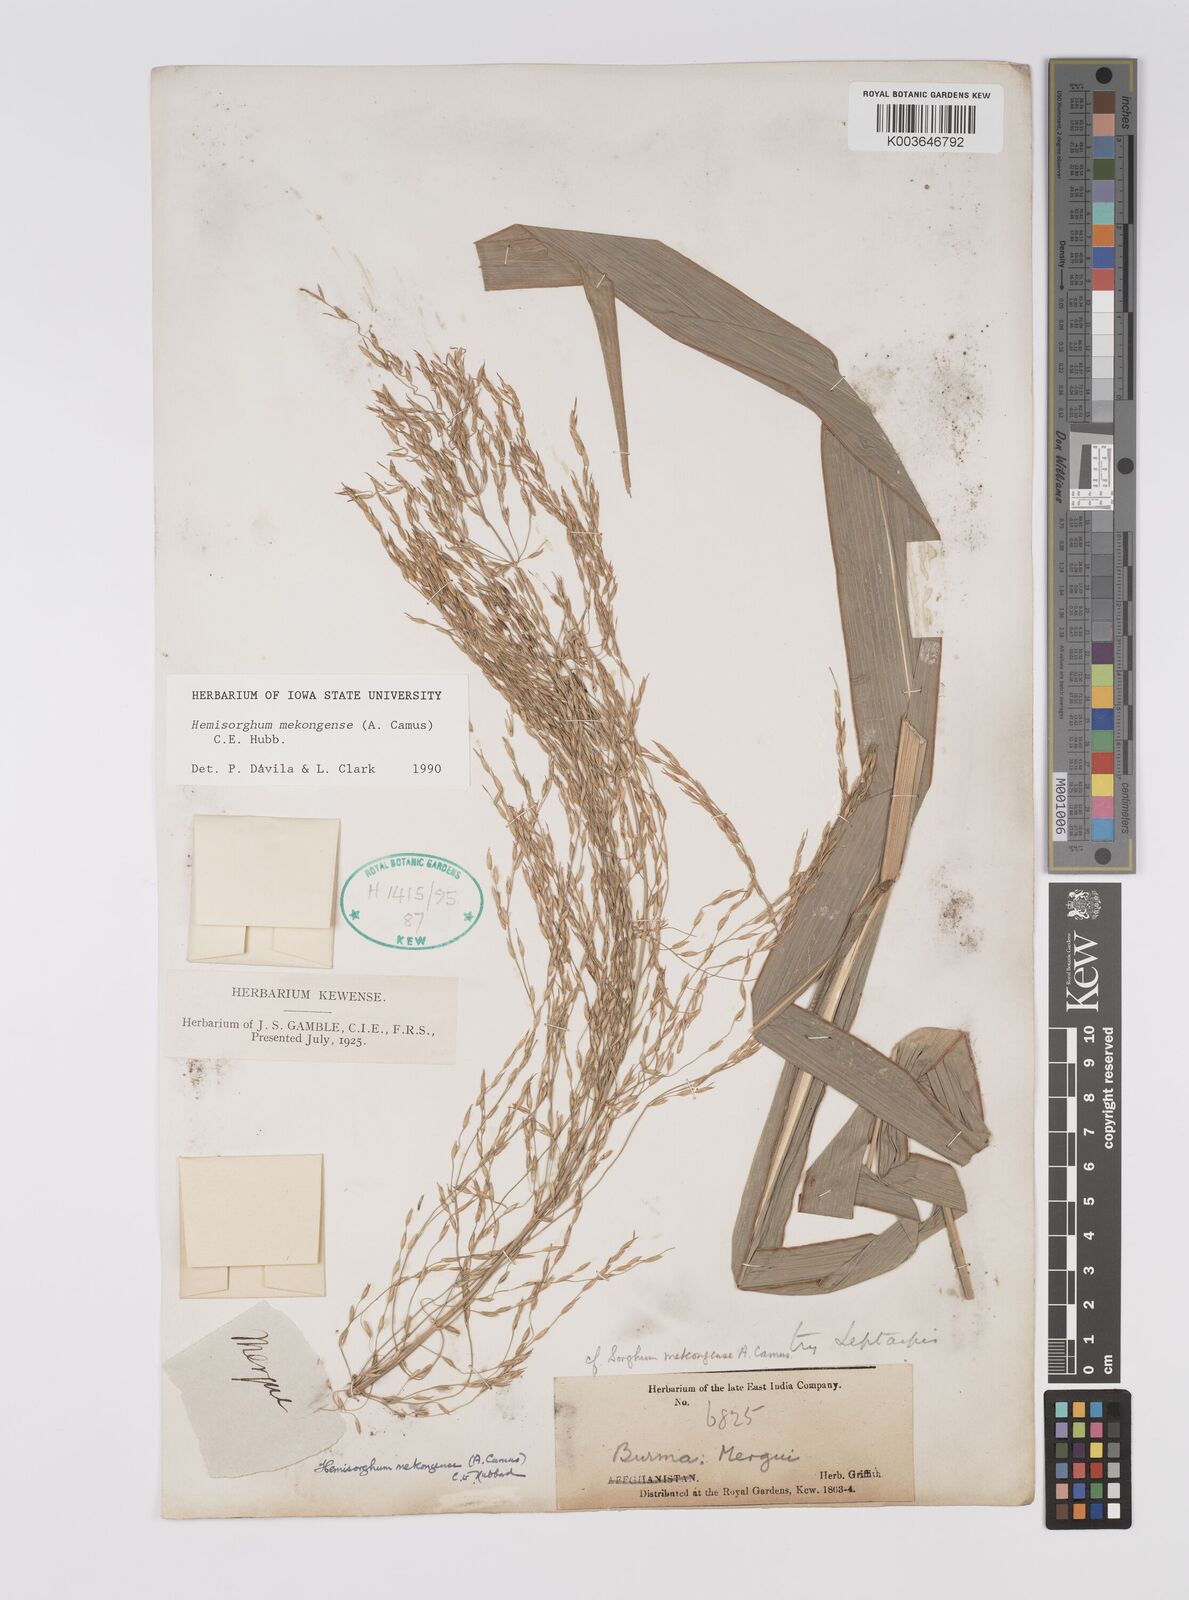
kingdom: Plantae
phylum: Tracheophyta
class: Liliopsida
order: Poales
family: Poaceae
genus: Hemisorghum
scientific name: Hemisorghum mekongense
